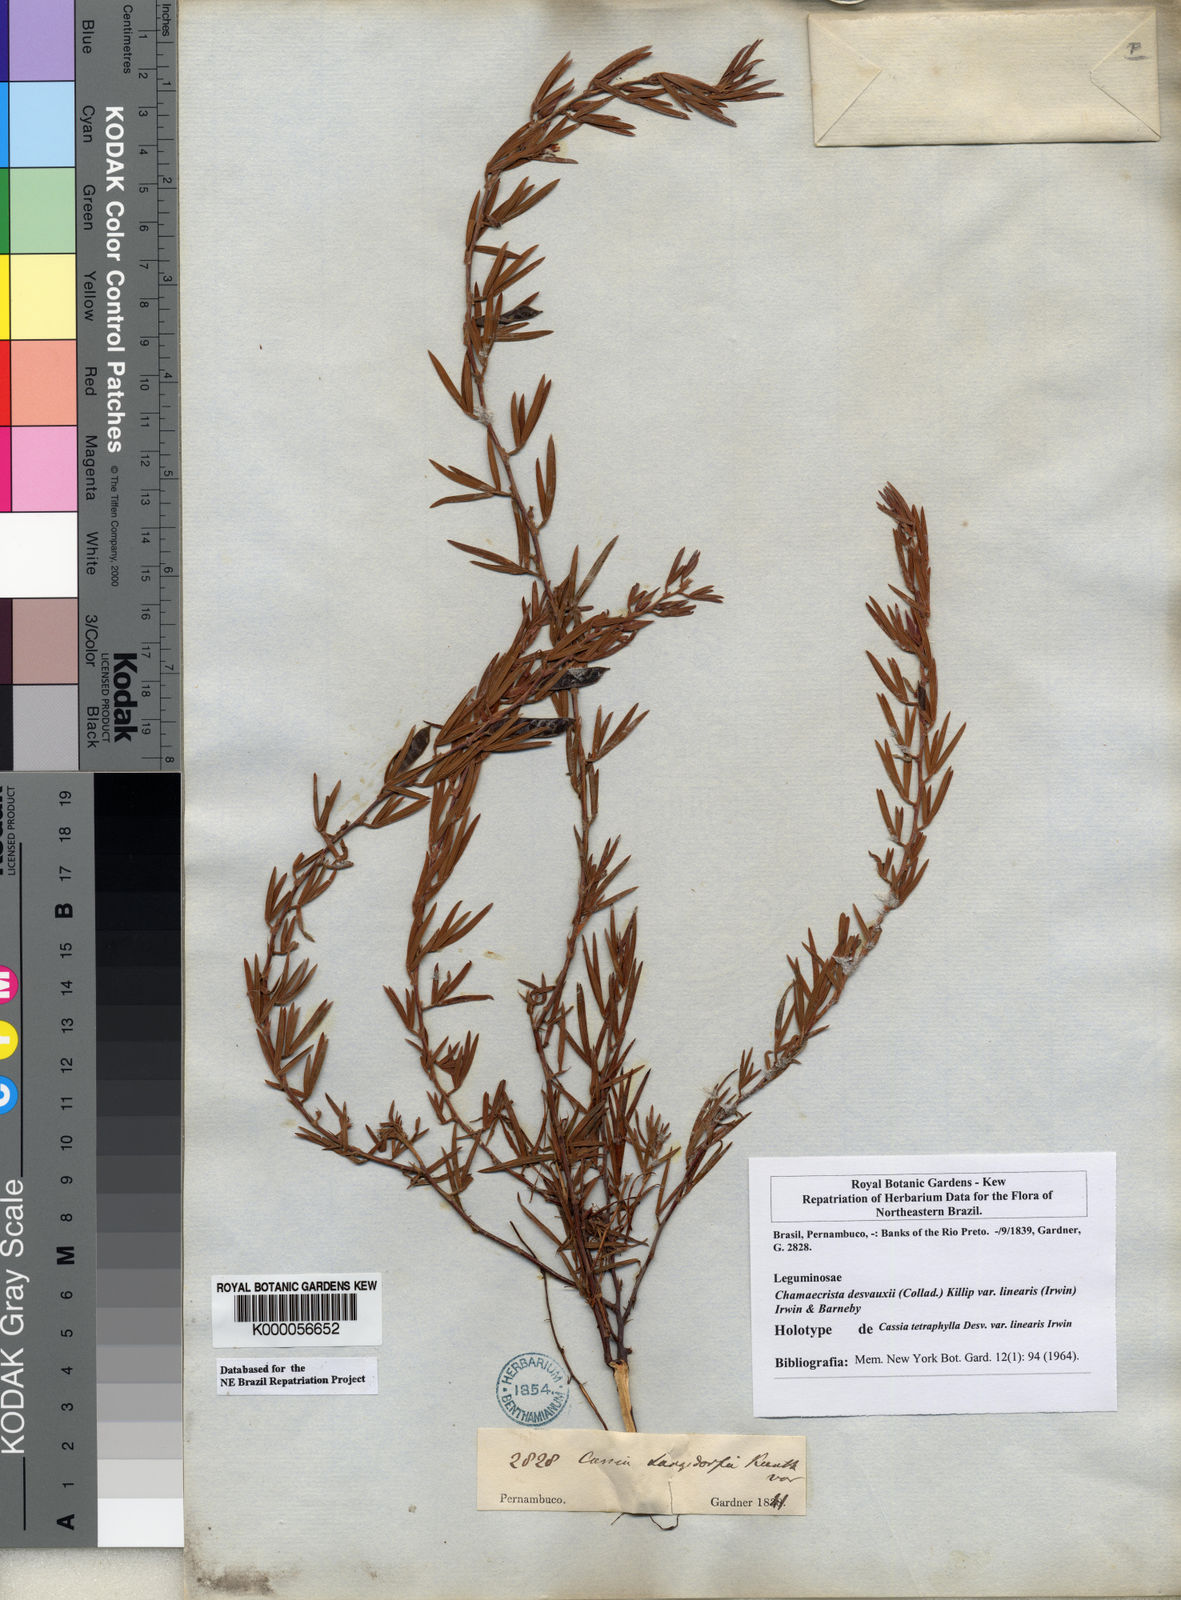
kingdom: Plantae
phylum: Tracheophyta
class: Magnoliopsida
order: Fabales
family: Fabaceae
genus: Chamaecrista
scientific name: Chamaecrista desvauxii
